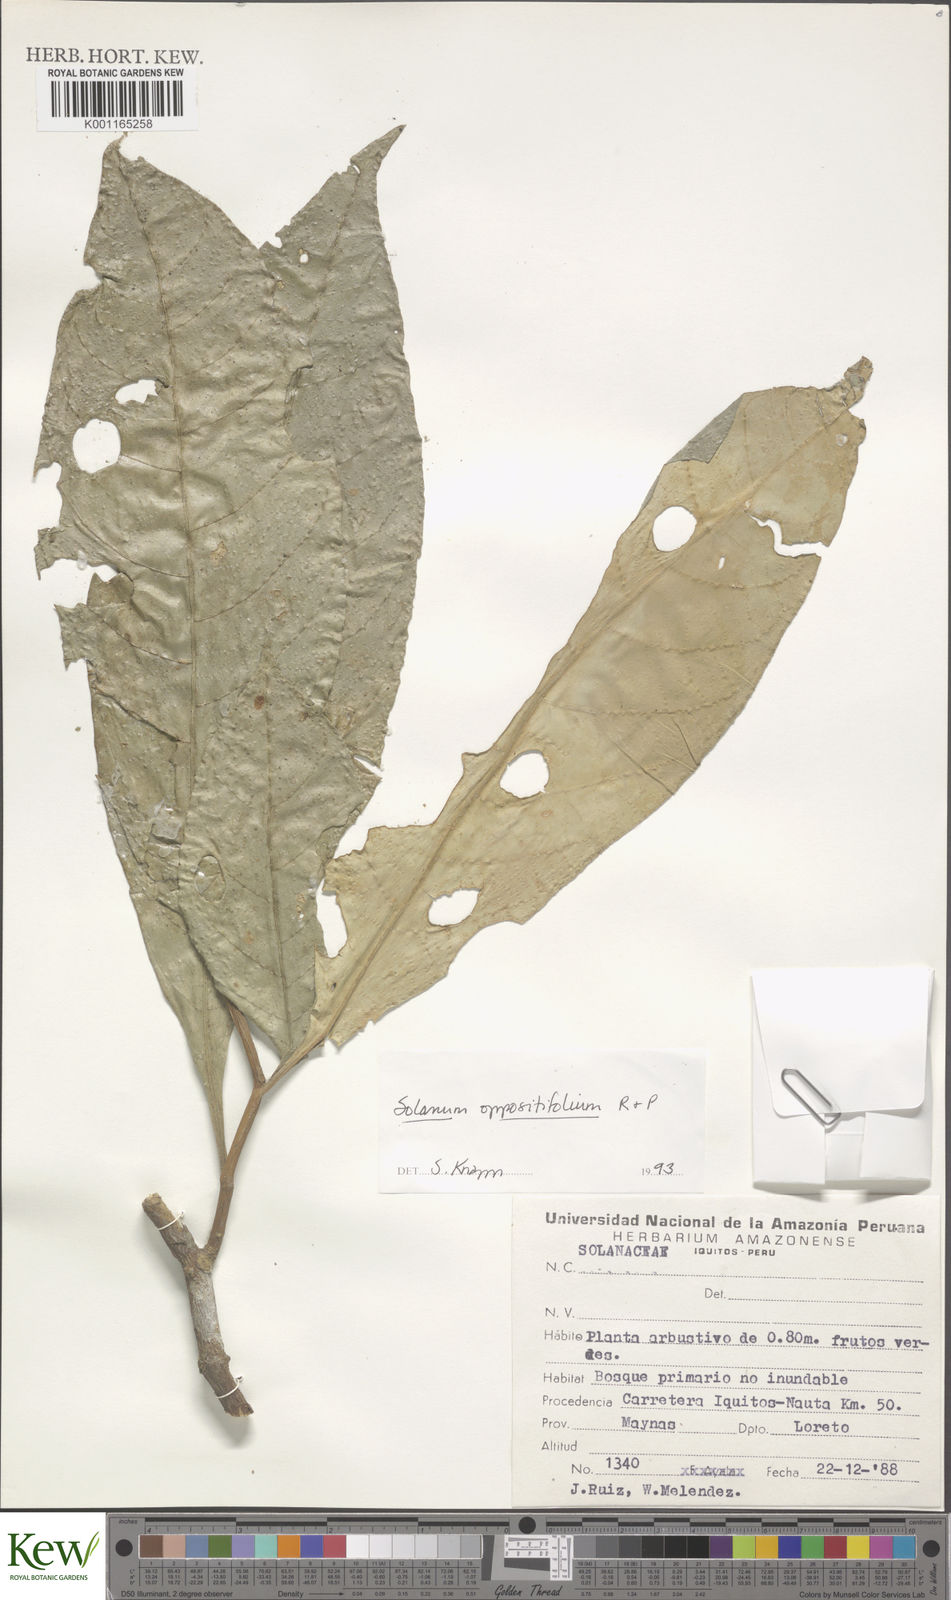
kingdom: Plantae
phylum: Tracheophyta
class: Magnoliopsida
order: Solanales
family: Solanaceae
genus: Solanum
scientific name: Solanum oppositifolium
